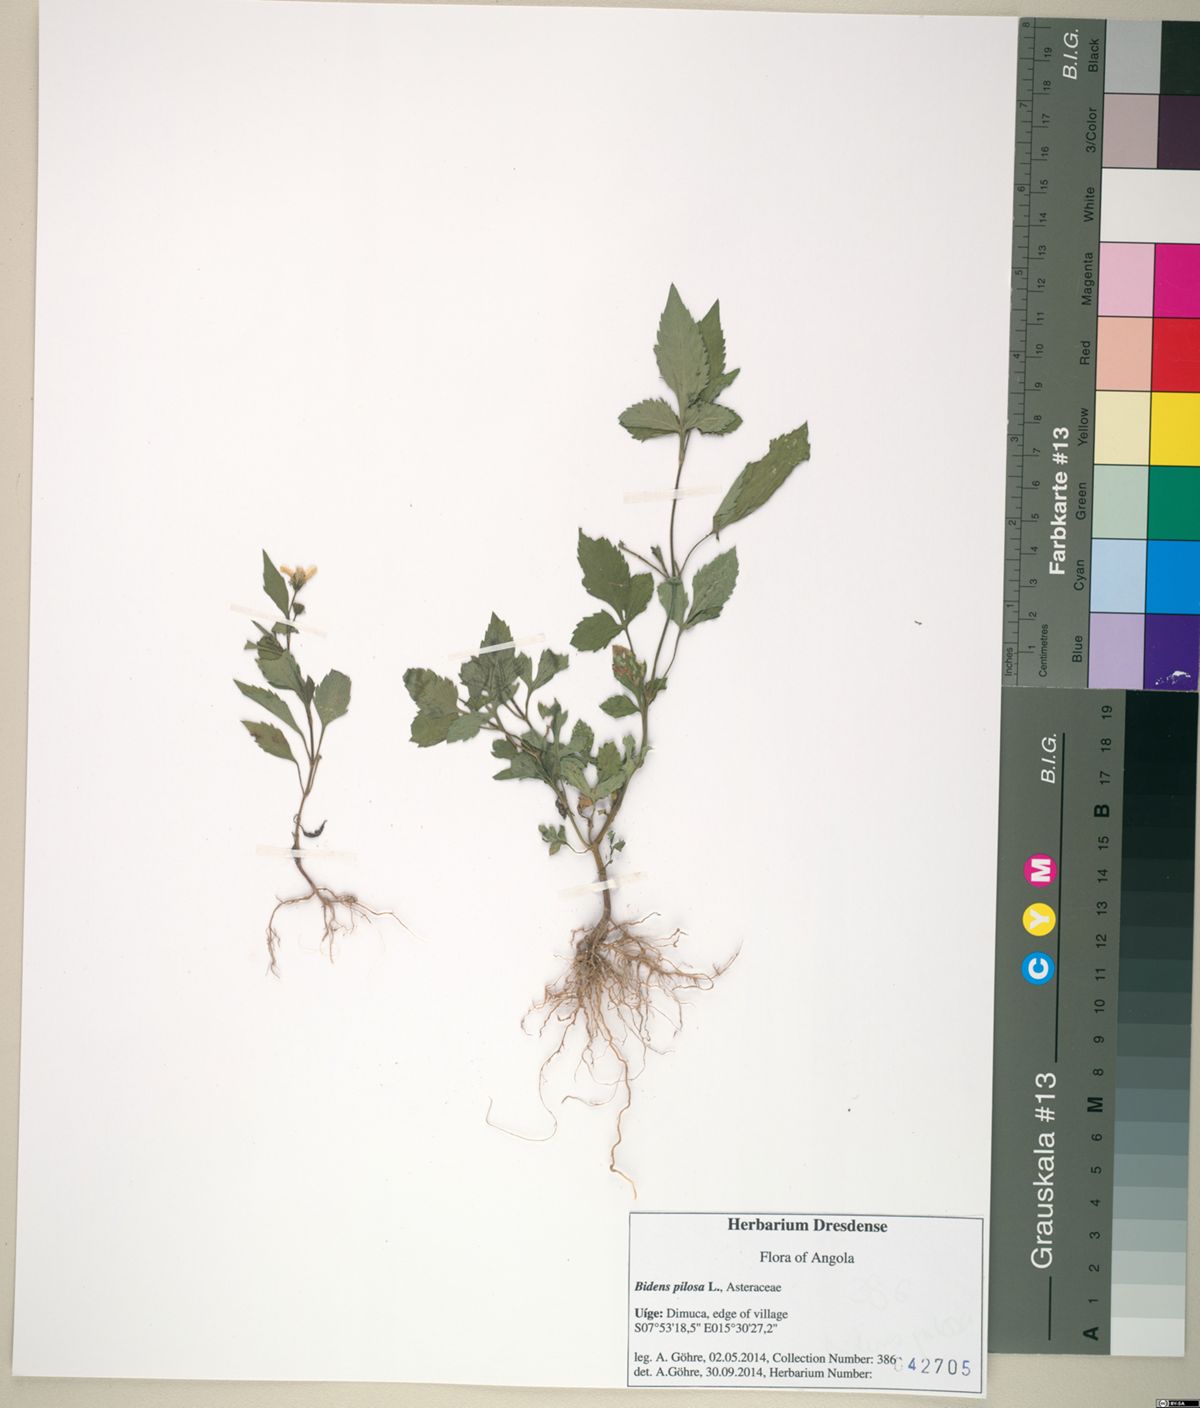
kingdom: Plantae
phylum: Tracheophyta
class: Magnoliopsida
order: Asterales
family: Asteraceae
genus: Bidens
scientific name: Bidens pilosa
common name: Black-jack
